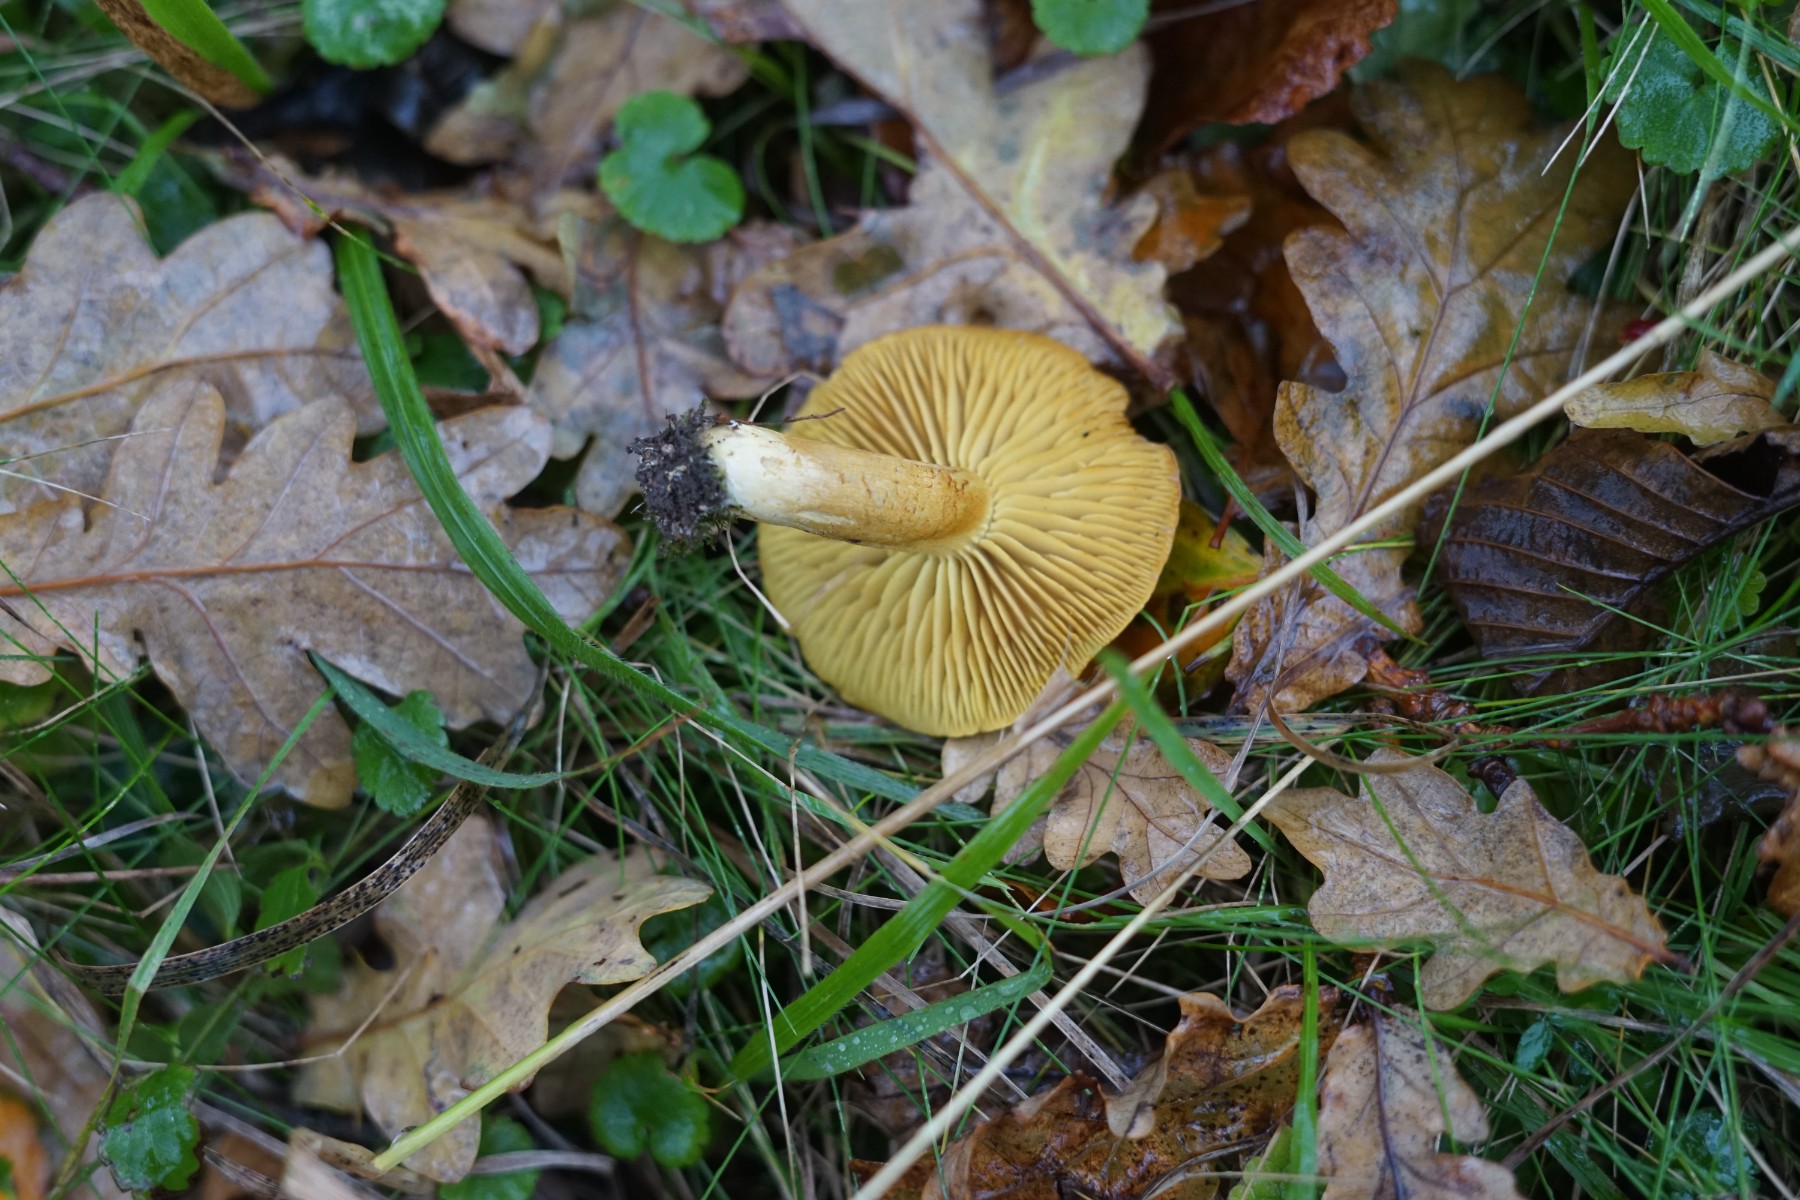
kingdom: Fungi
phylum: Basidiomycota
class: Agaricomycetes
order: Agaricales
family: Tricholomataceae
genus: Tricholoma
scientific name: Tricholoma sulphureum
